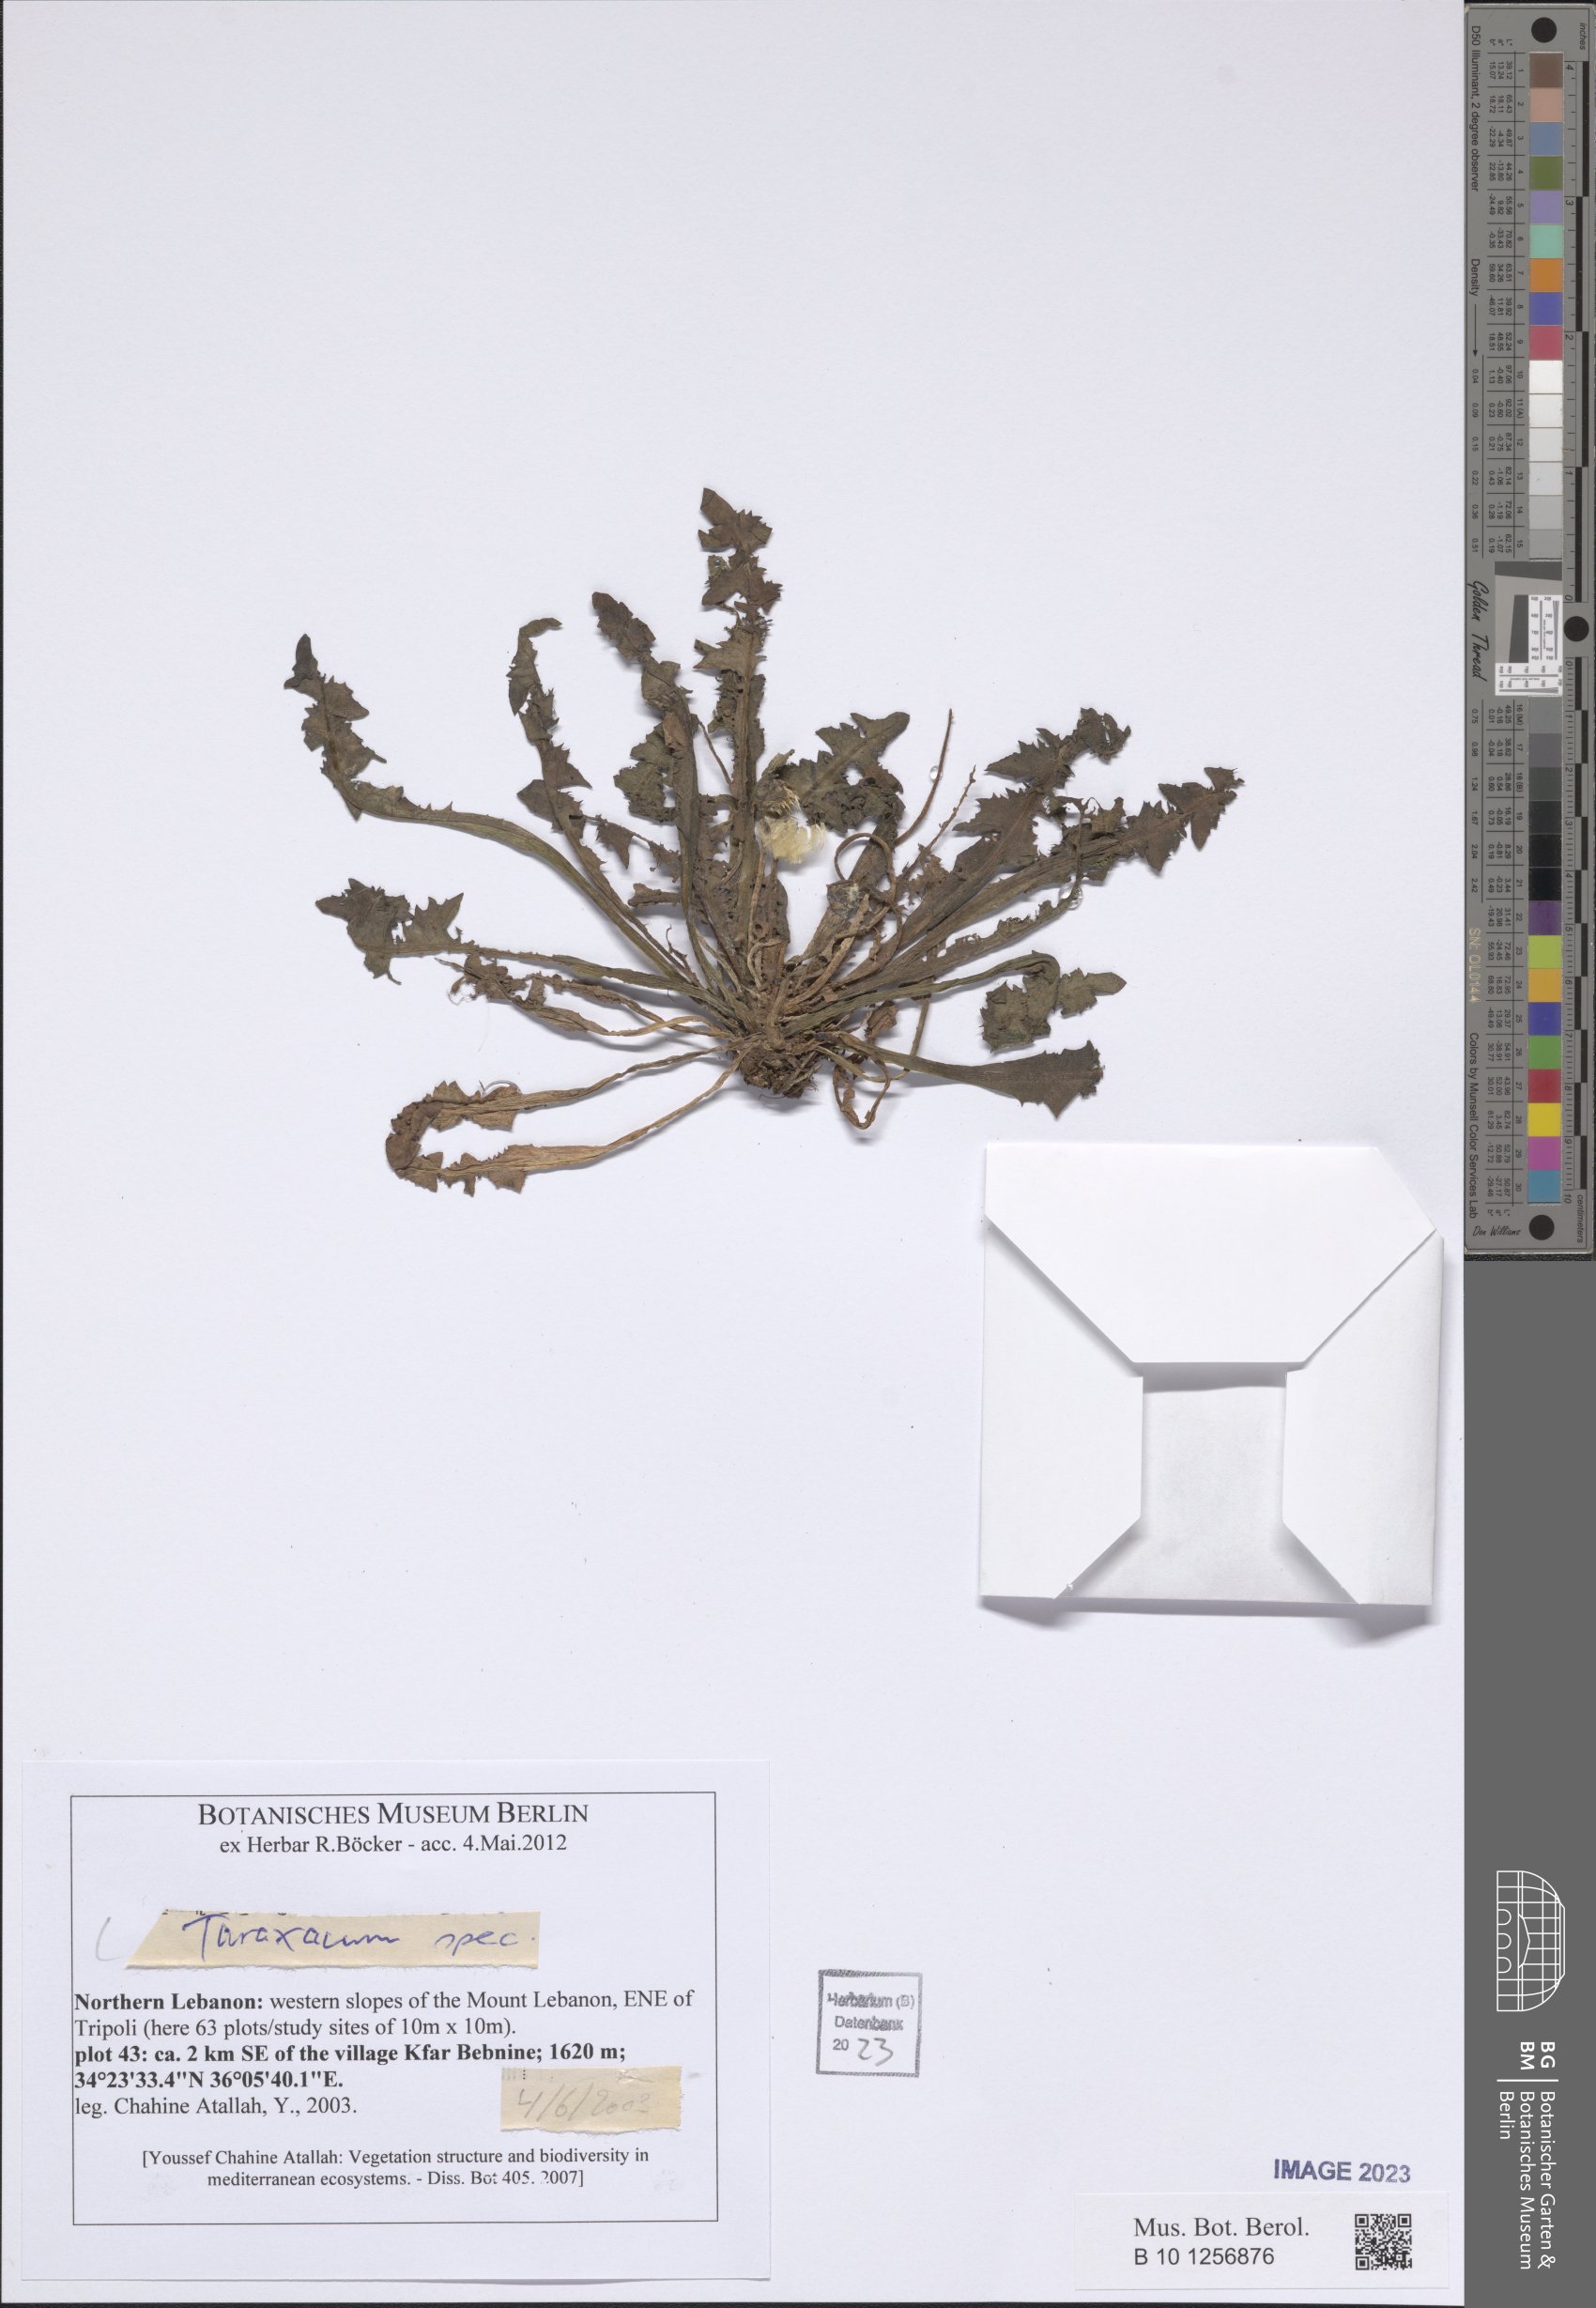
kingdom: Plantae
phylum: Tracheophyta
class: Magnoliopsida
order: Asterales
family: Asteraceae
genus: Taraxacum
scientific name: Taraxacum
